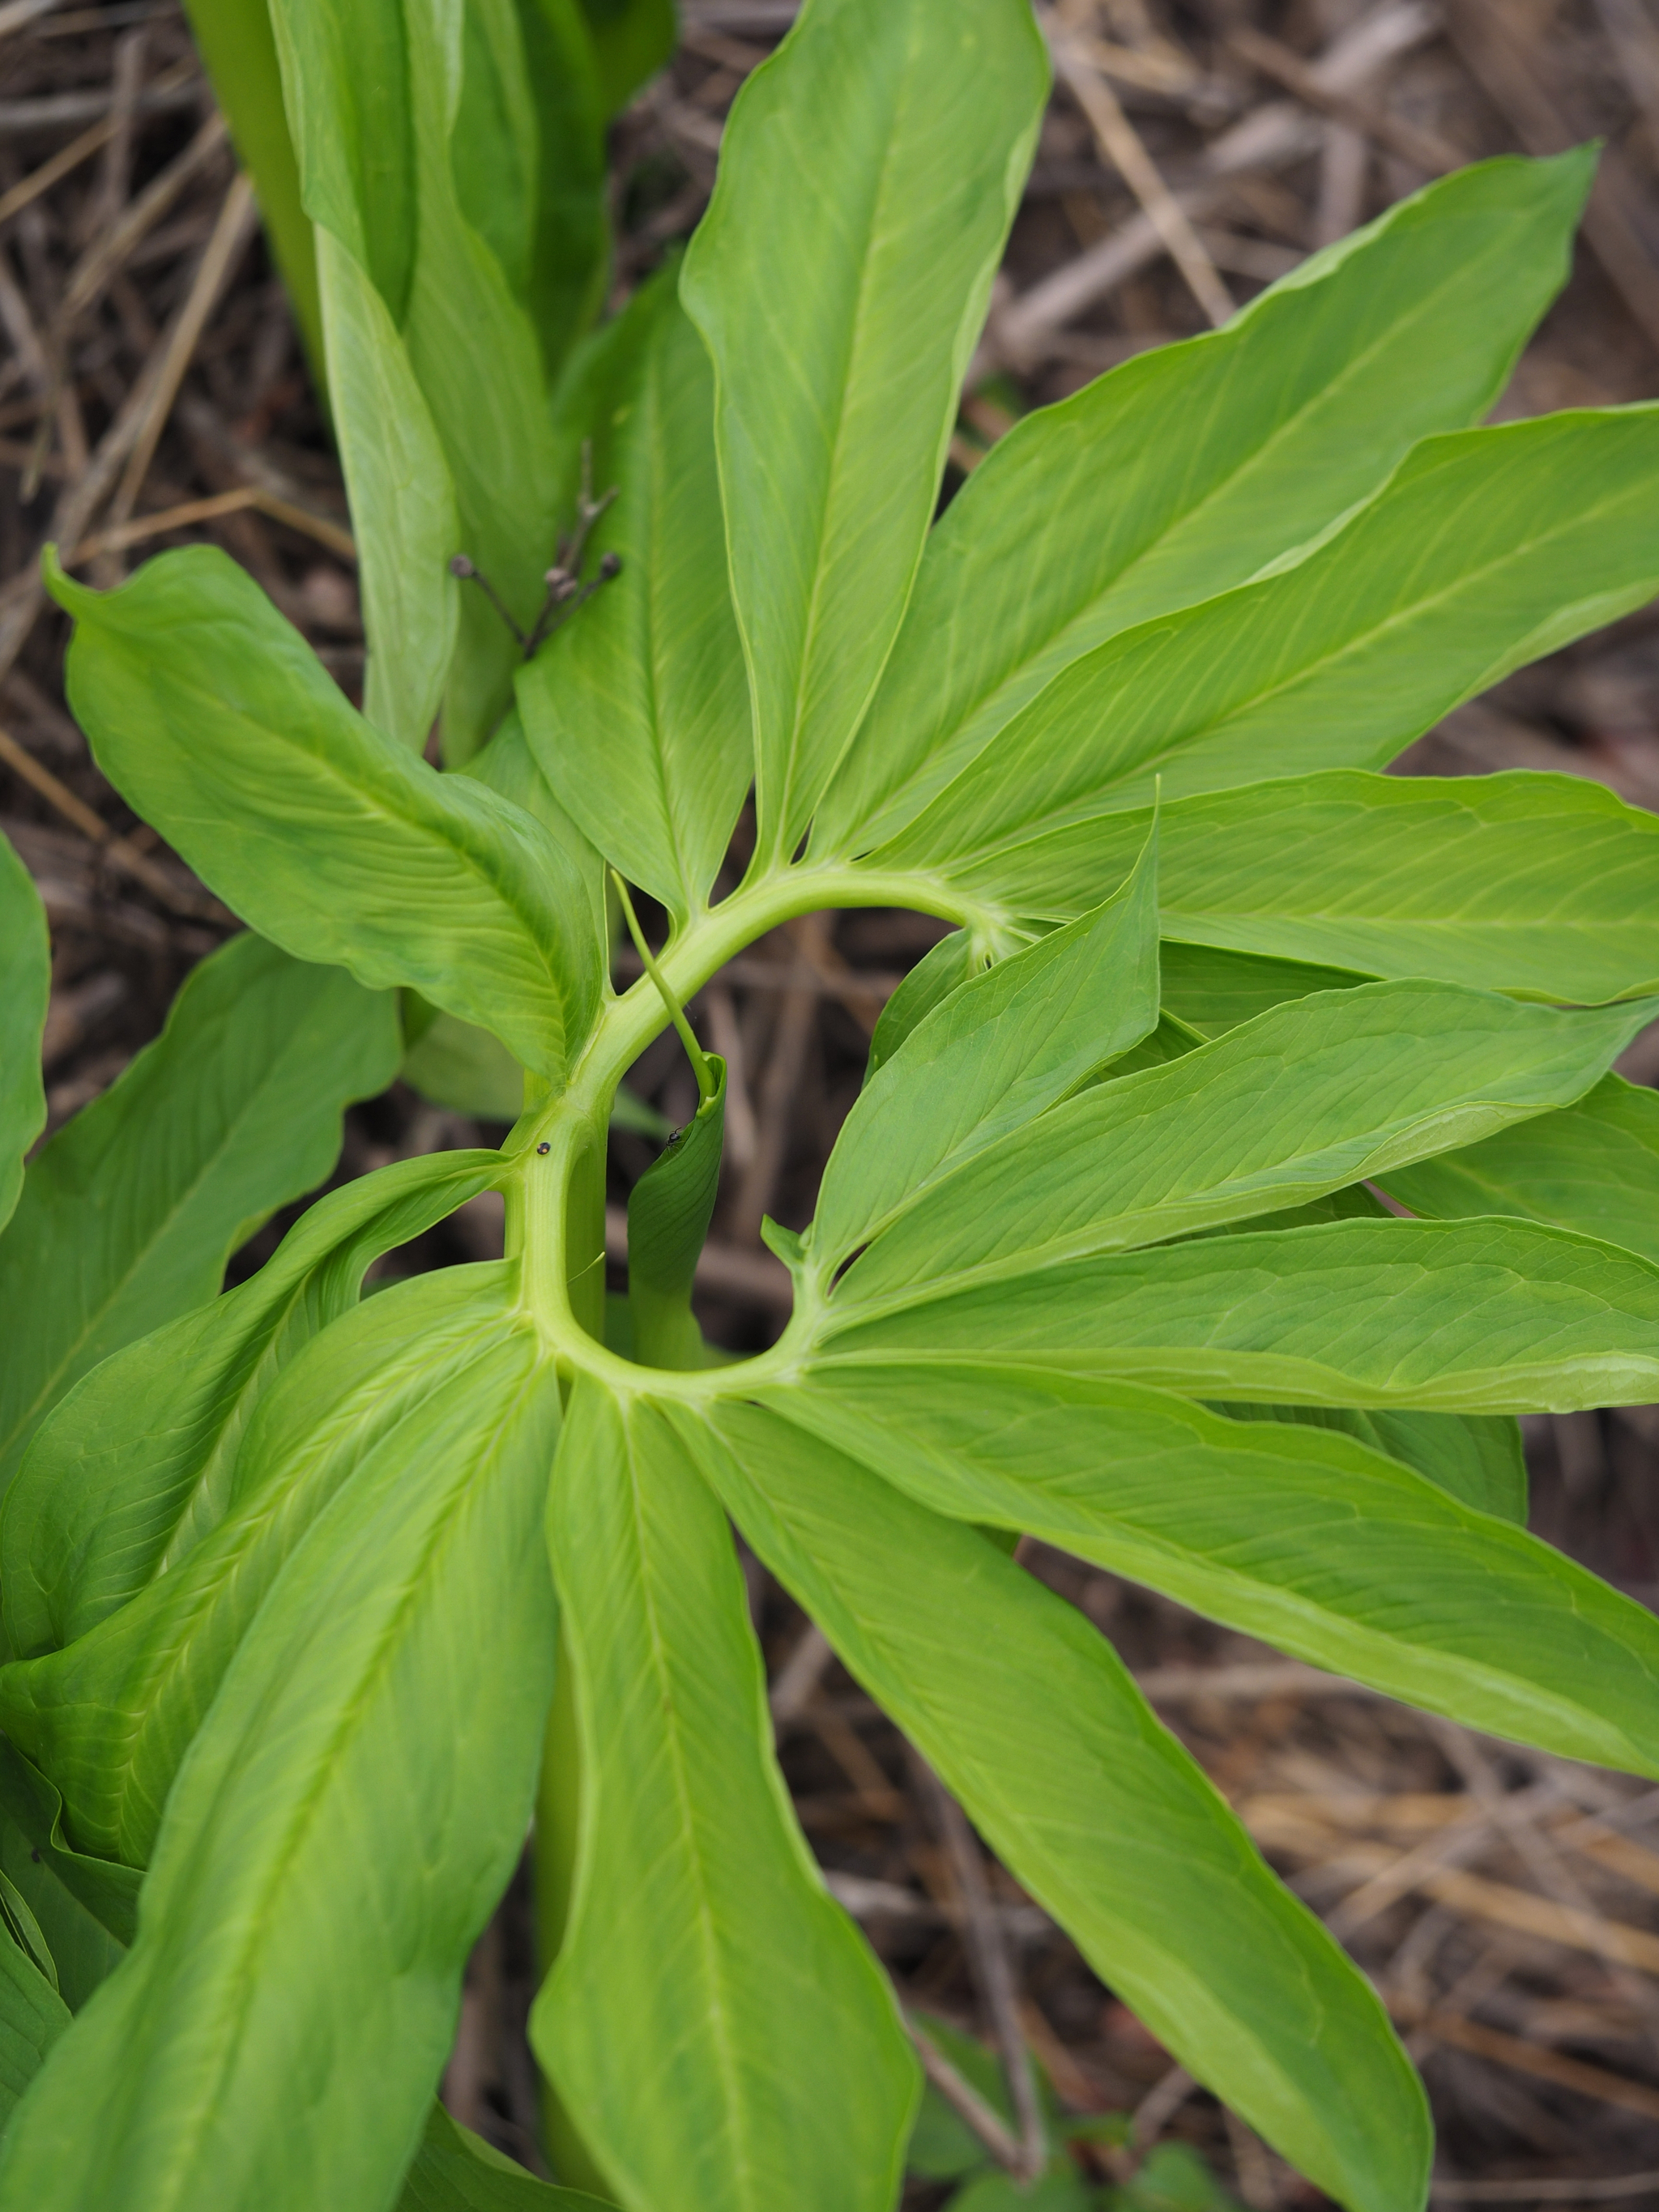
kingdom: Plantae
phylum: Tracheophyta
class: Liliopsida
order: Alismatales
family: Araceae
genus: Arisaema
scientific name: Arisaema heterophyllum
